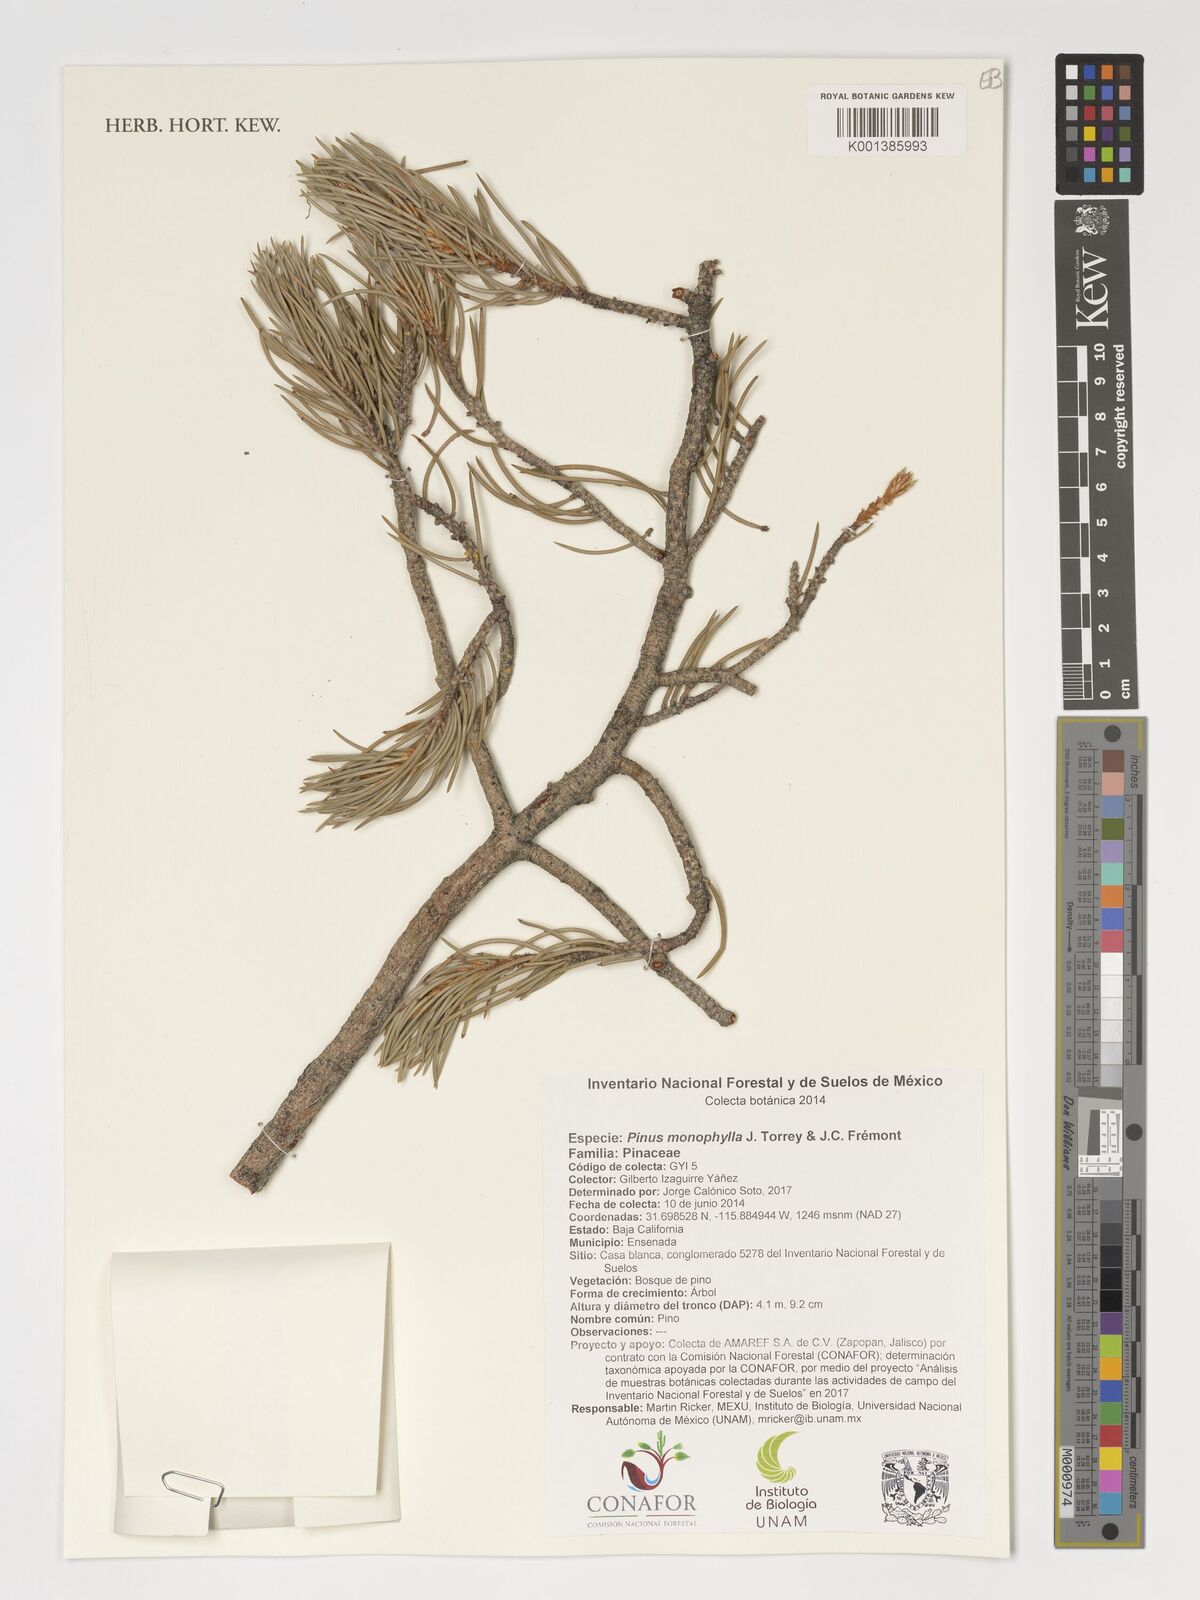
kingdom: Plantae
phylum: Tracheophyta
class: Pinopsida
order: Pinales
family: Pinaceae
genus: Pinus
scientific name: Pinus monophylla
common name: One-leaved nut pine
